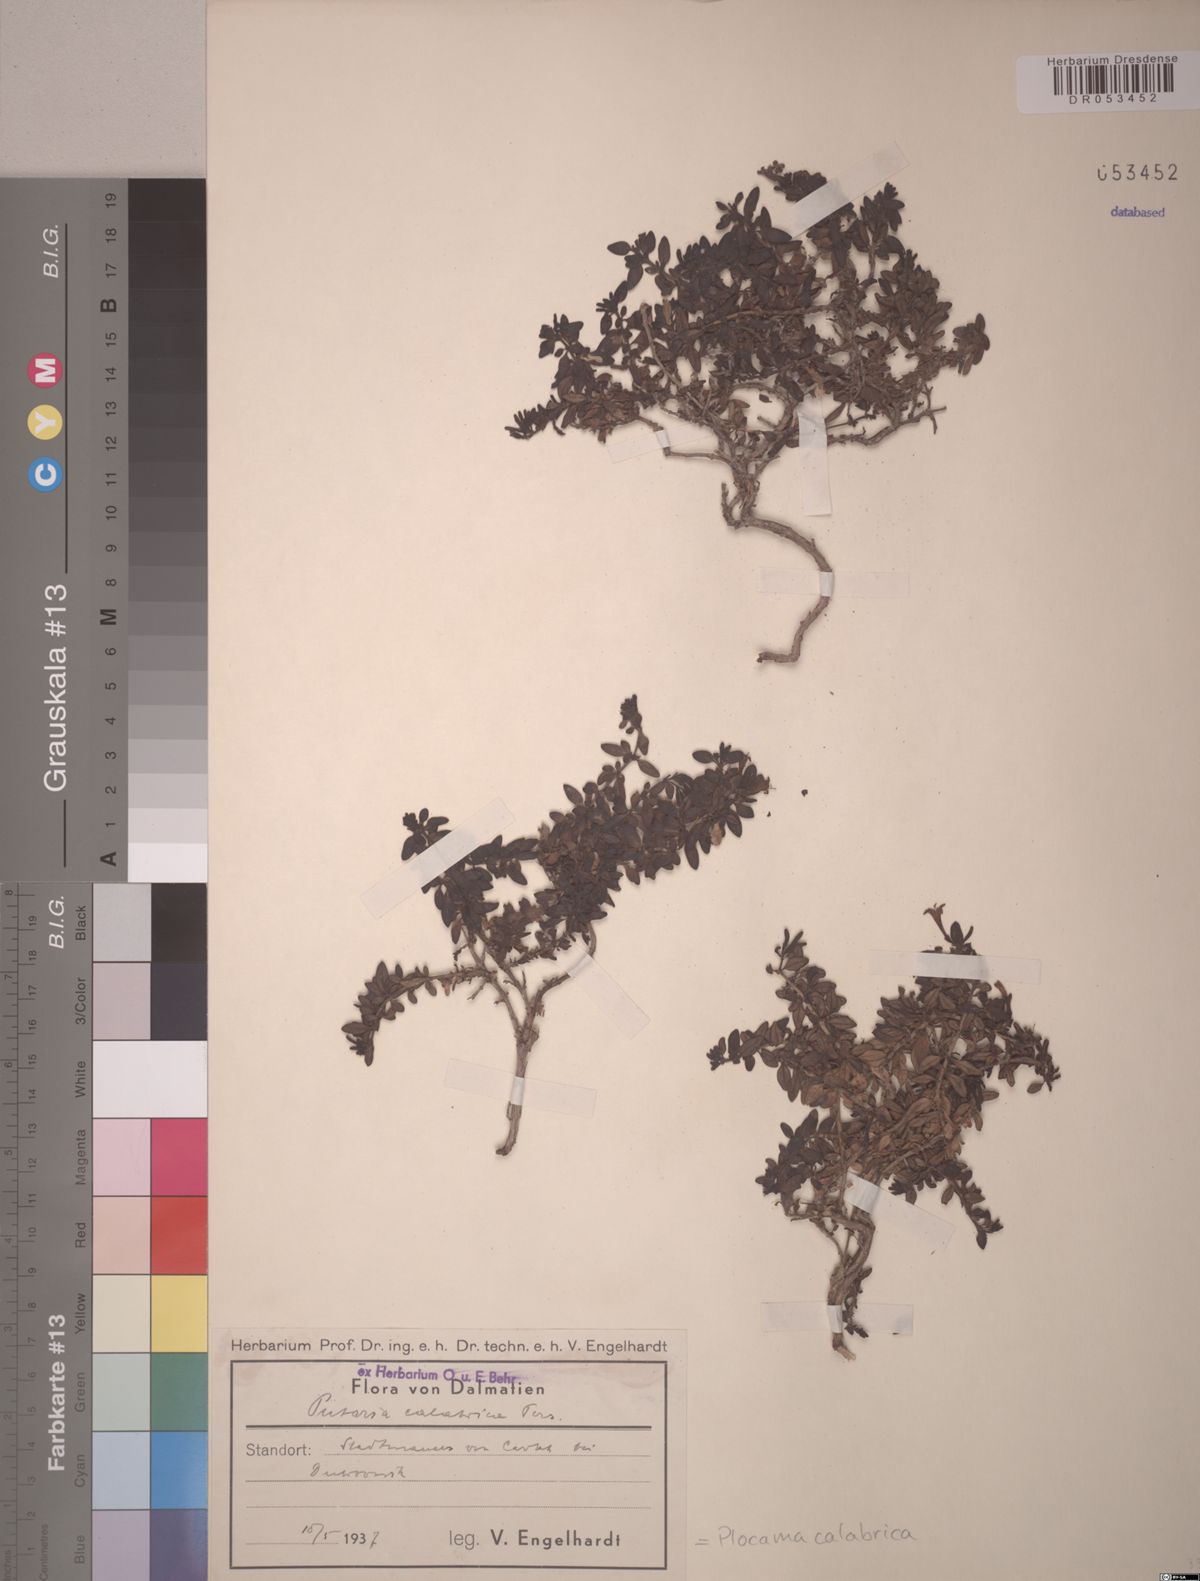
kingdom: Plantae
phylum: Tracheophyta
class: Magnoliopsida
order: Gentianales
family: Rubiaceae
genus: Plocama
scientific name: Plocama calabrica
